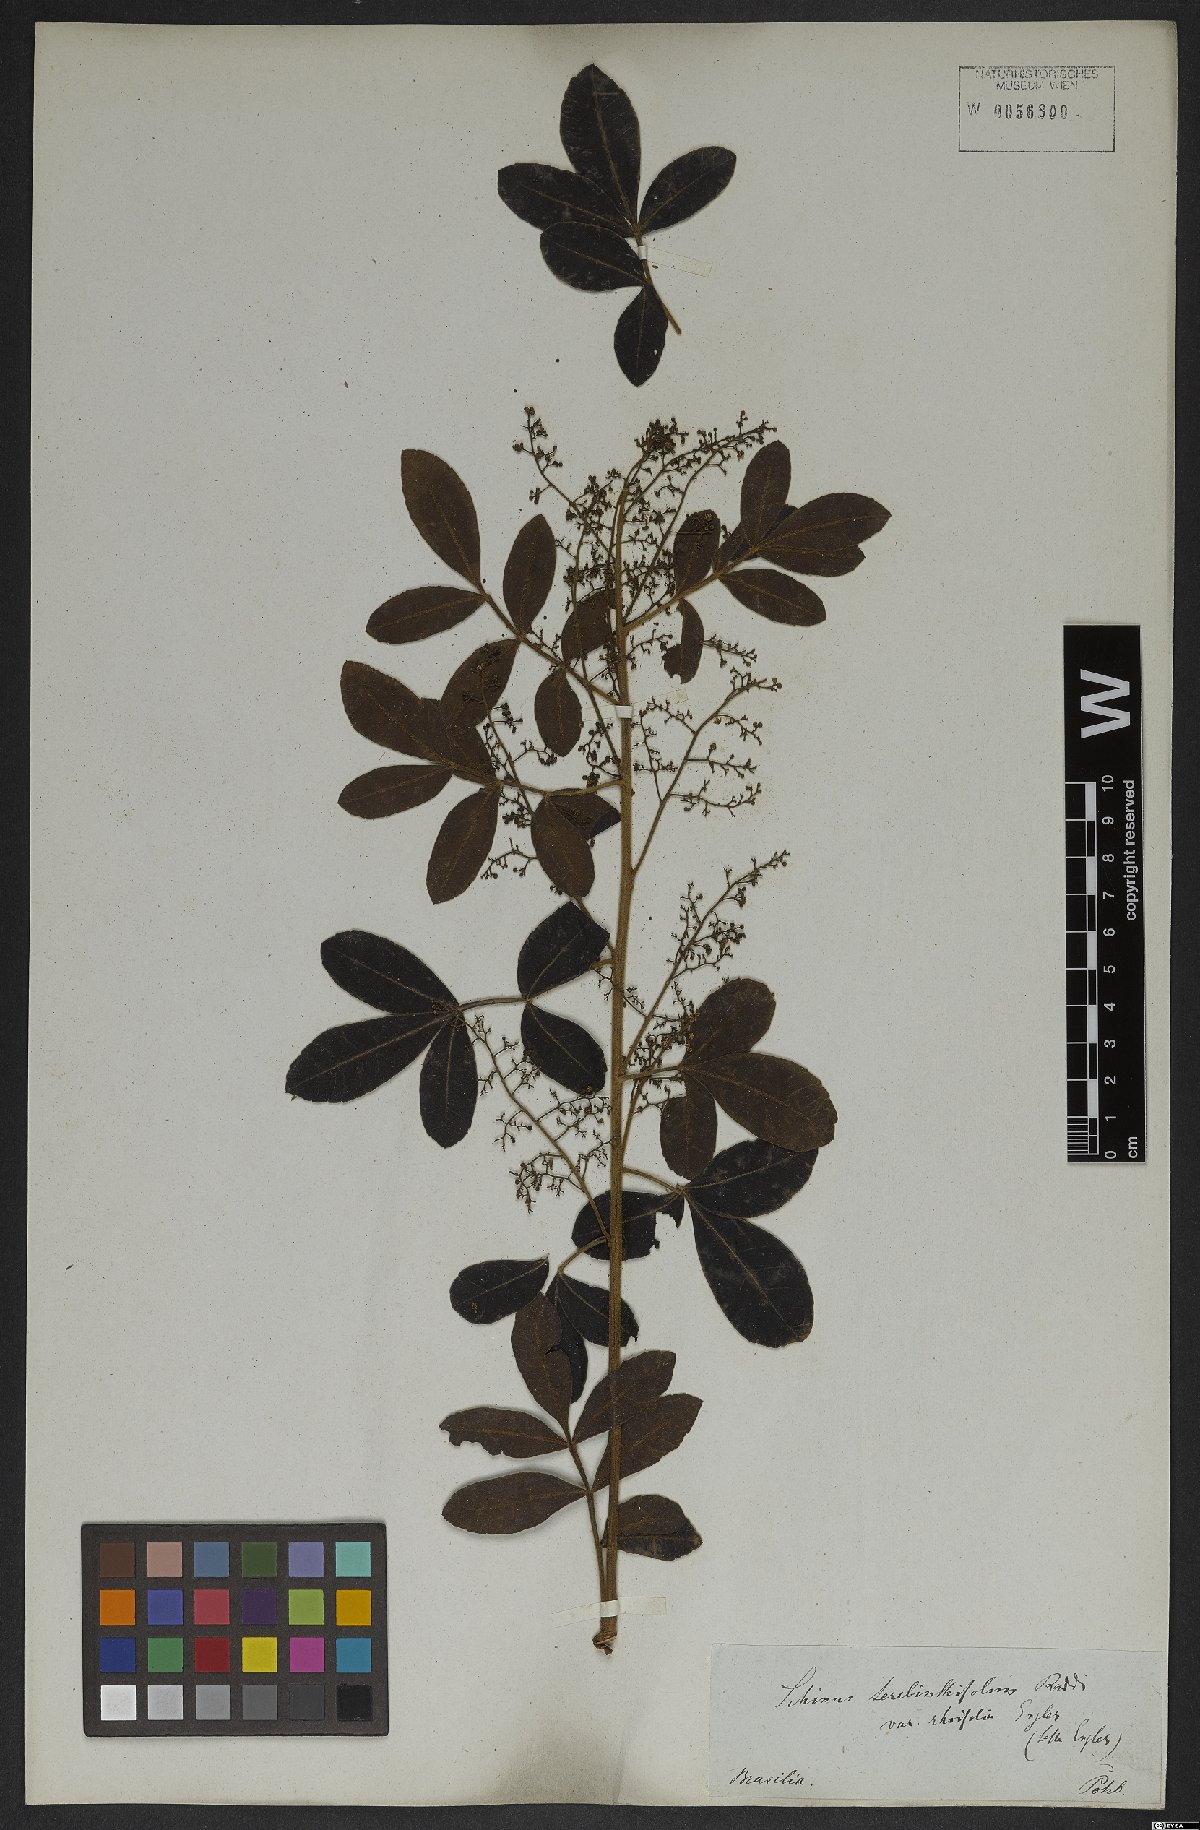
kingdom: Plantae
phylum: Tracheophyta
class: Magnoliopsida
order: Sapindales
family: Anacardiaceae
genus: Schinus
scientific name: Schinus terebinthifolia
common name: Brazilian peppertree
